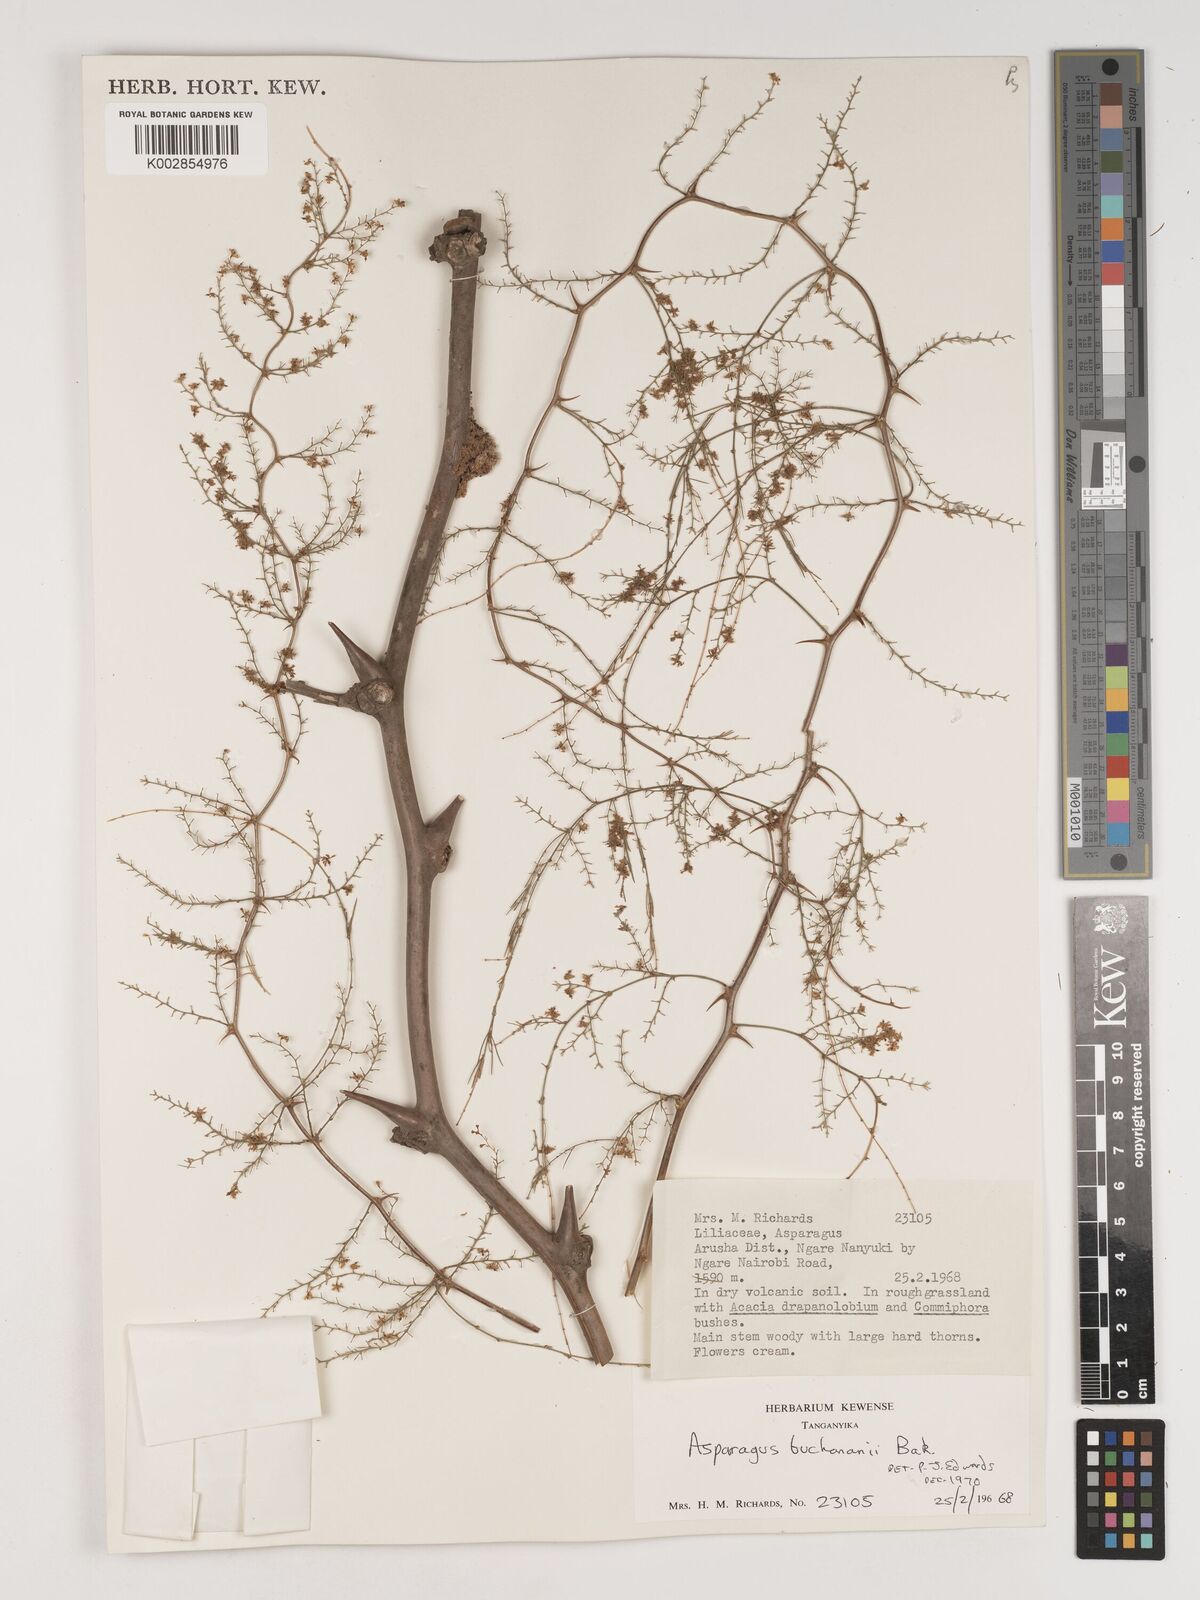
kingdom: Plantae
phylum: Tracheophyta
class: Liliopsida
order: Asparagales
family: Asparagaceae
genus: Asparagus
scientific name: Asparagus buchananii
